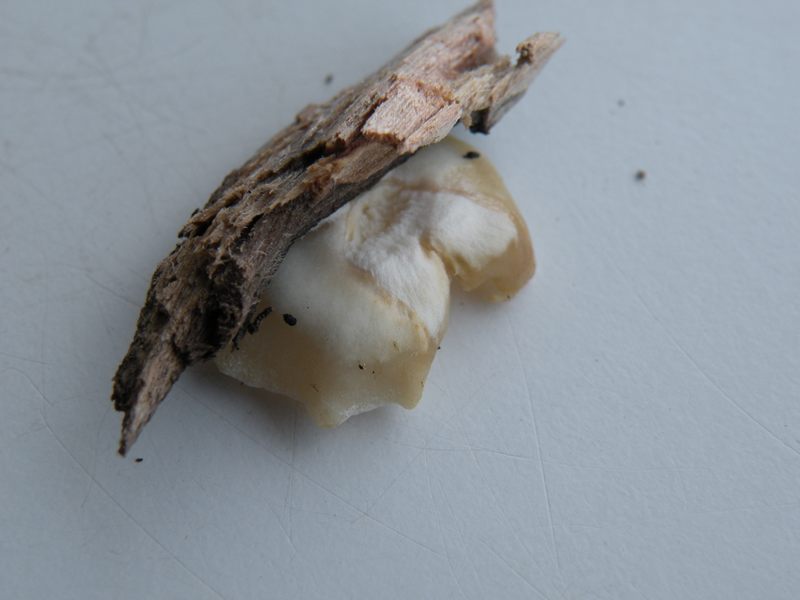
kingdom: Fungi
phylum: Basidiomycota
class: Agaricomycetes
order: Agaricales
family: Crepidotaceae
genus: Crepidotus
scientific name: Crepidotus mollis
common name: blød muslingesvamp
